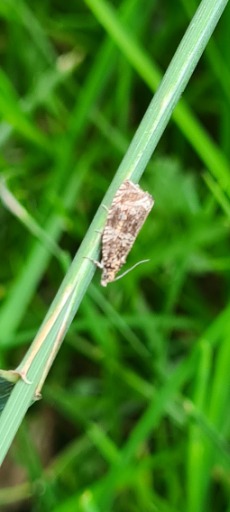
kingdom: Animalia
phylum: Arthropoda
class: Insecta
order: Lepidoptera
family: Tortricidae
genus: Syricoris
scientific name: Syricoris lacunana
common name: Rød jordbærvikler
